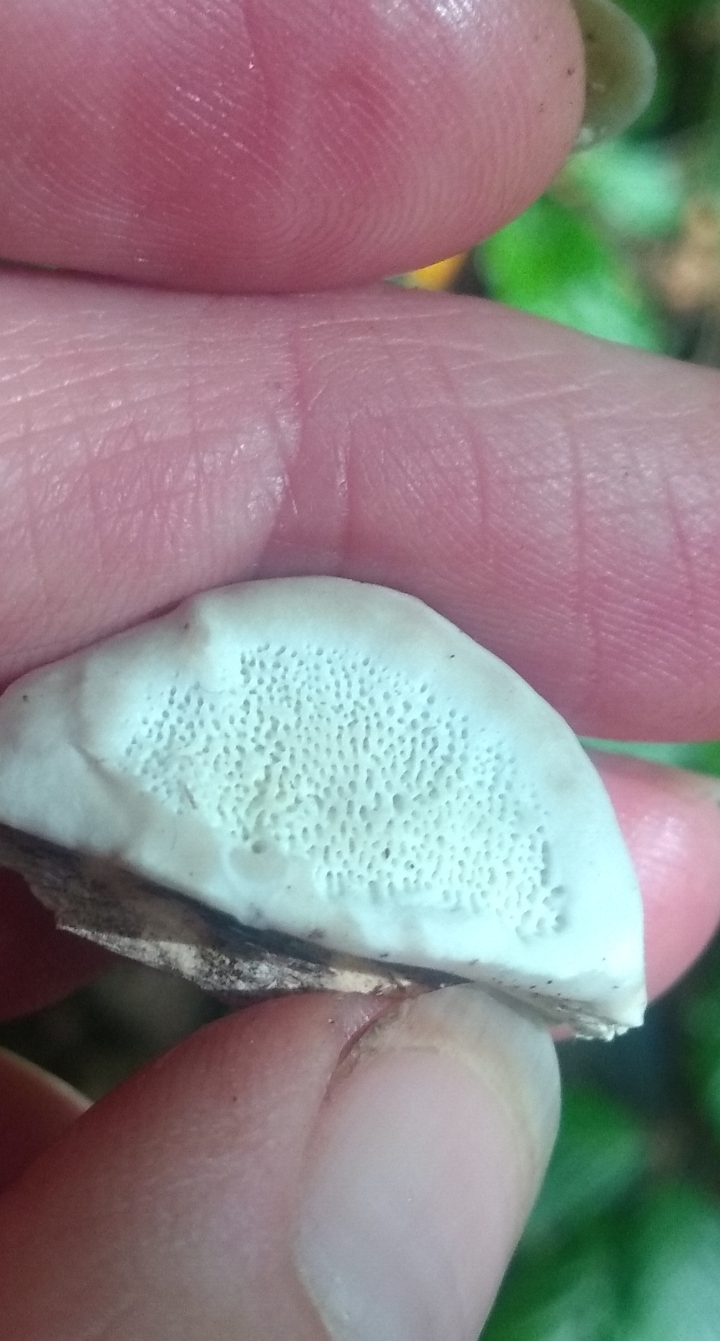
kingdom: Fungi
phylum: Basidiomycota
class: Agaricomycetes
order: Polyporales
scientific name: Polyporales
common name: poresvampordenen
